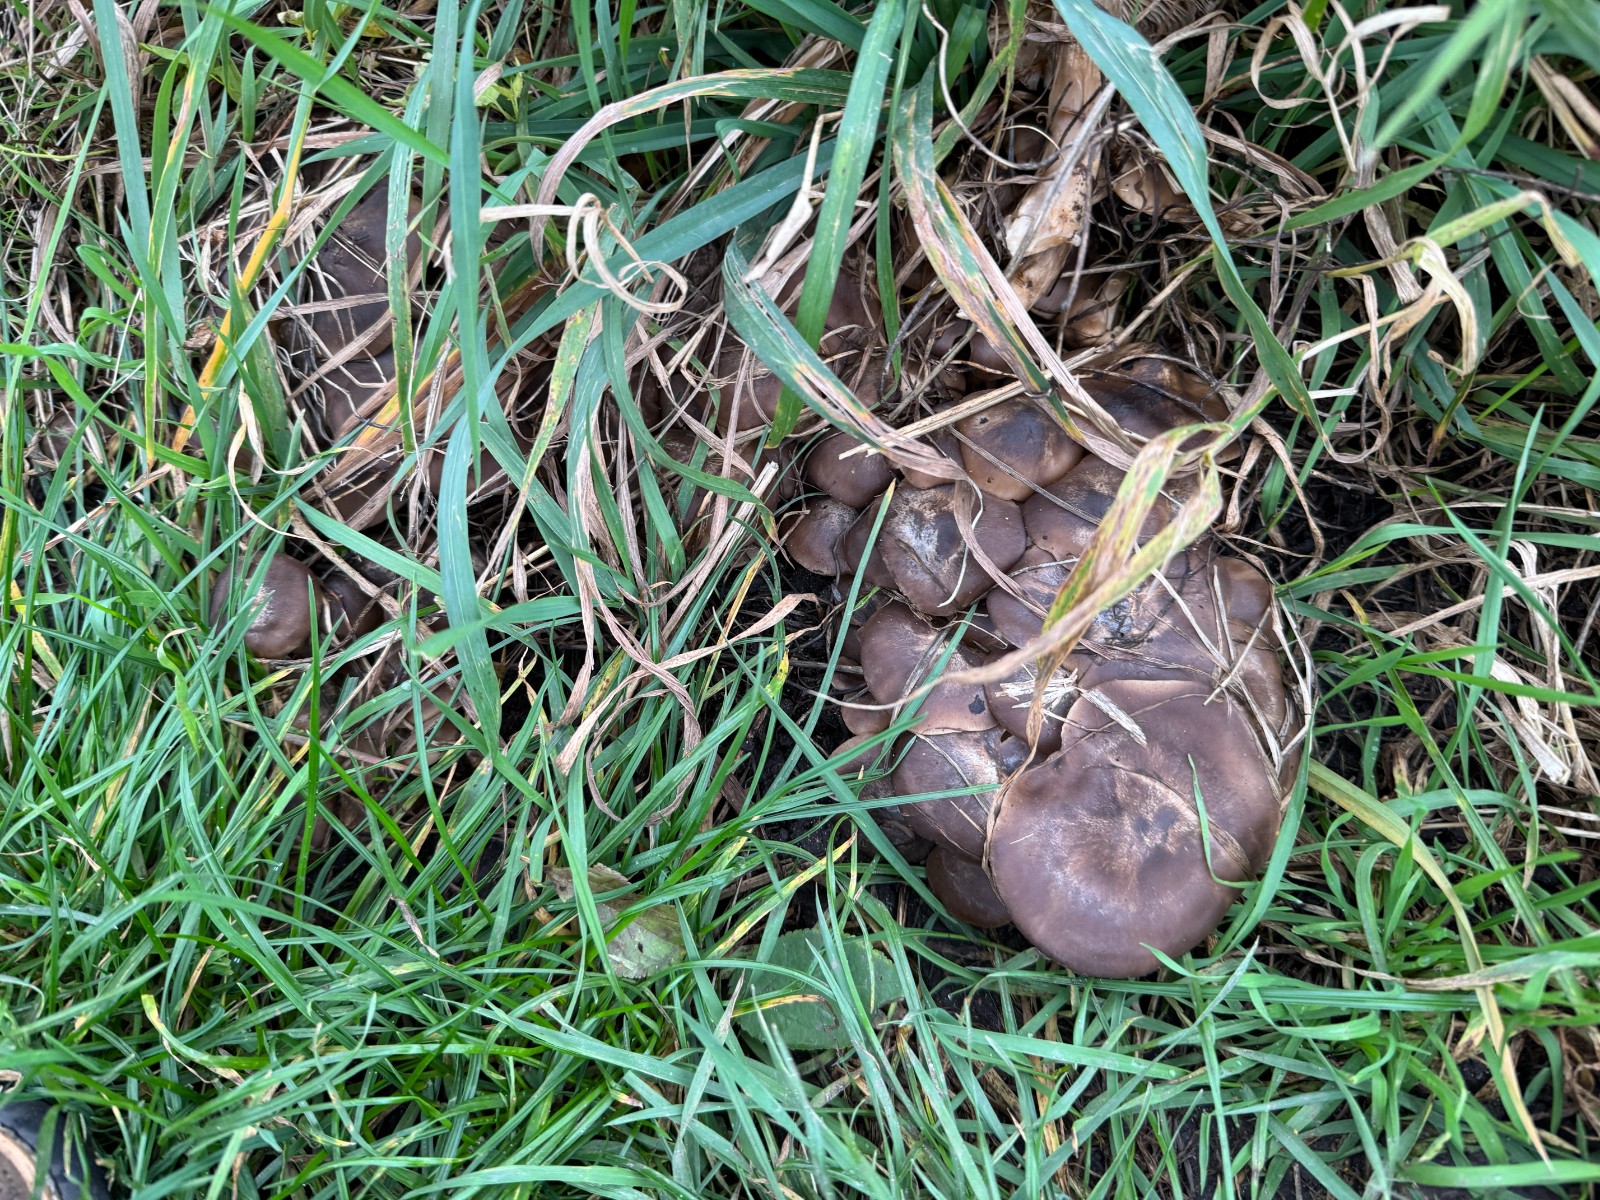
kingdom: Fungi
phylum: Basidiomycota
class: Agaricomycetes
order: Agaricales
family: Lyophyllaceae
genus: Lyophyllum
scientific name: Lyophyllum decastes
